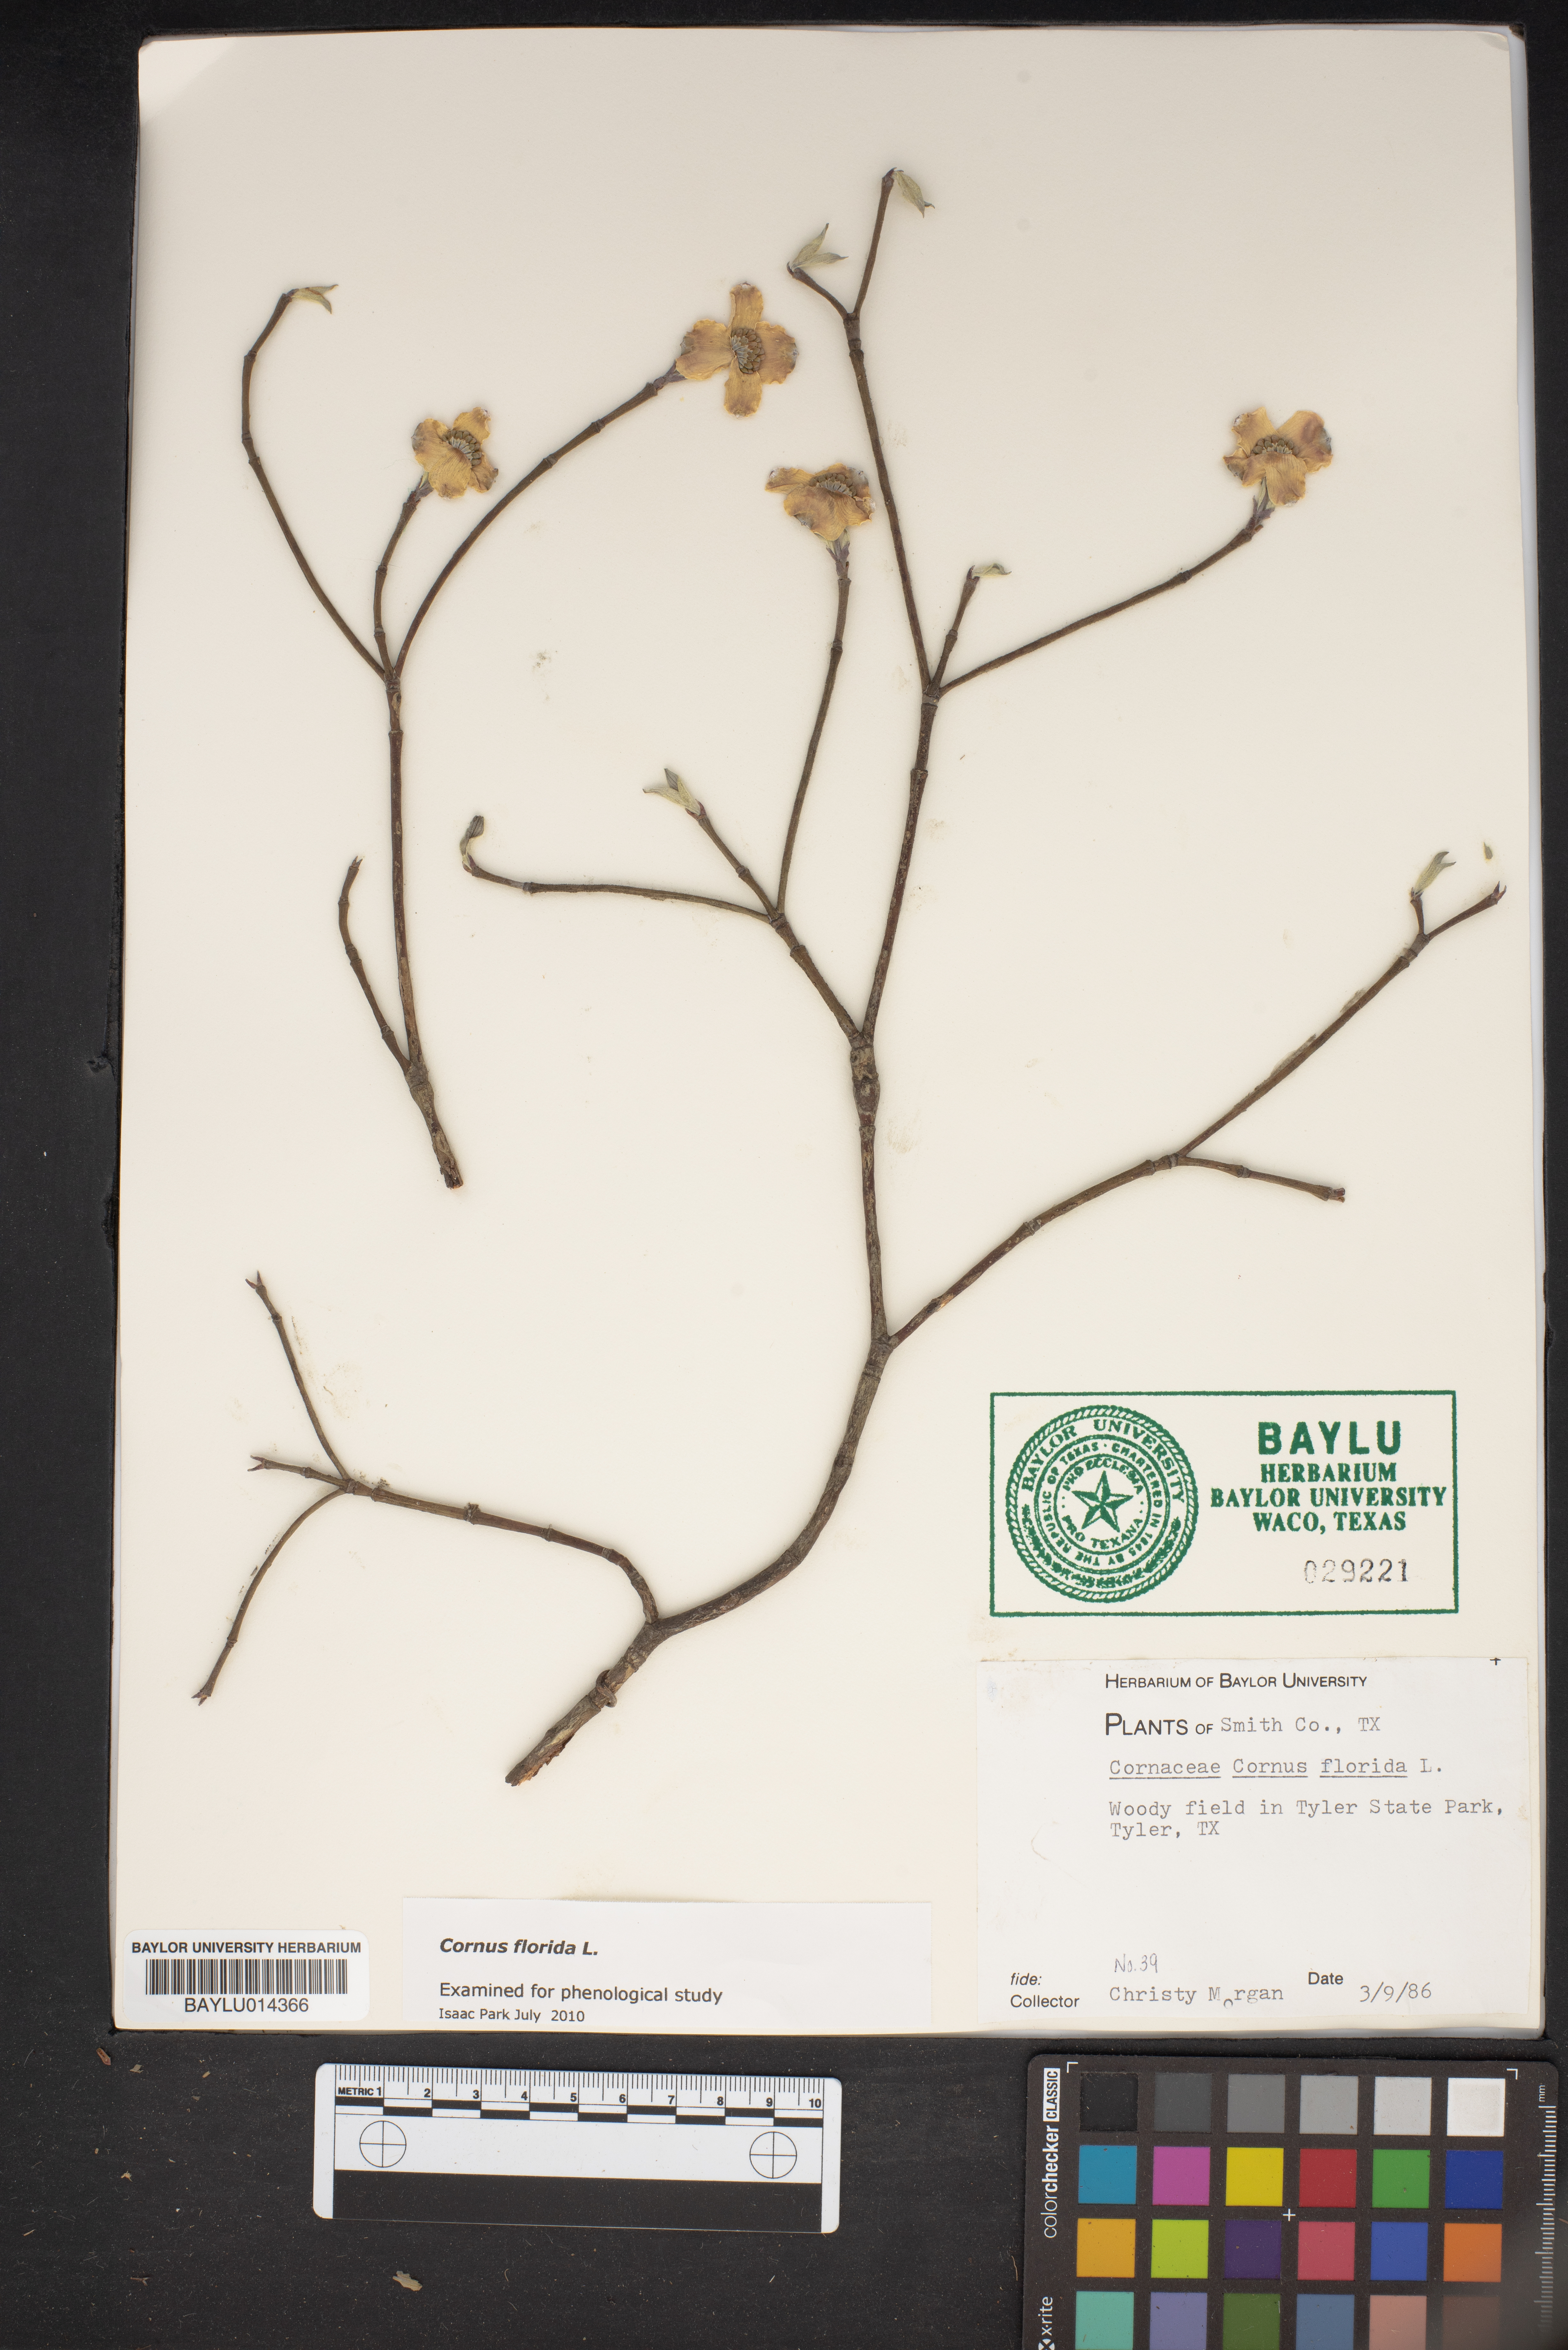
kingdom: Plantae
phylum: Tracheophyta
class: Magnoliopsida
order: Cornales
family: Cornaceae
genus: Cornus
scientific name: Cornus florida
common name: Flowering dogwood
